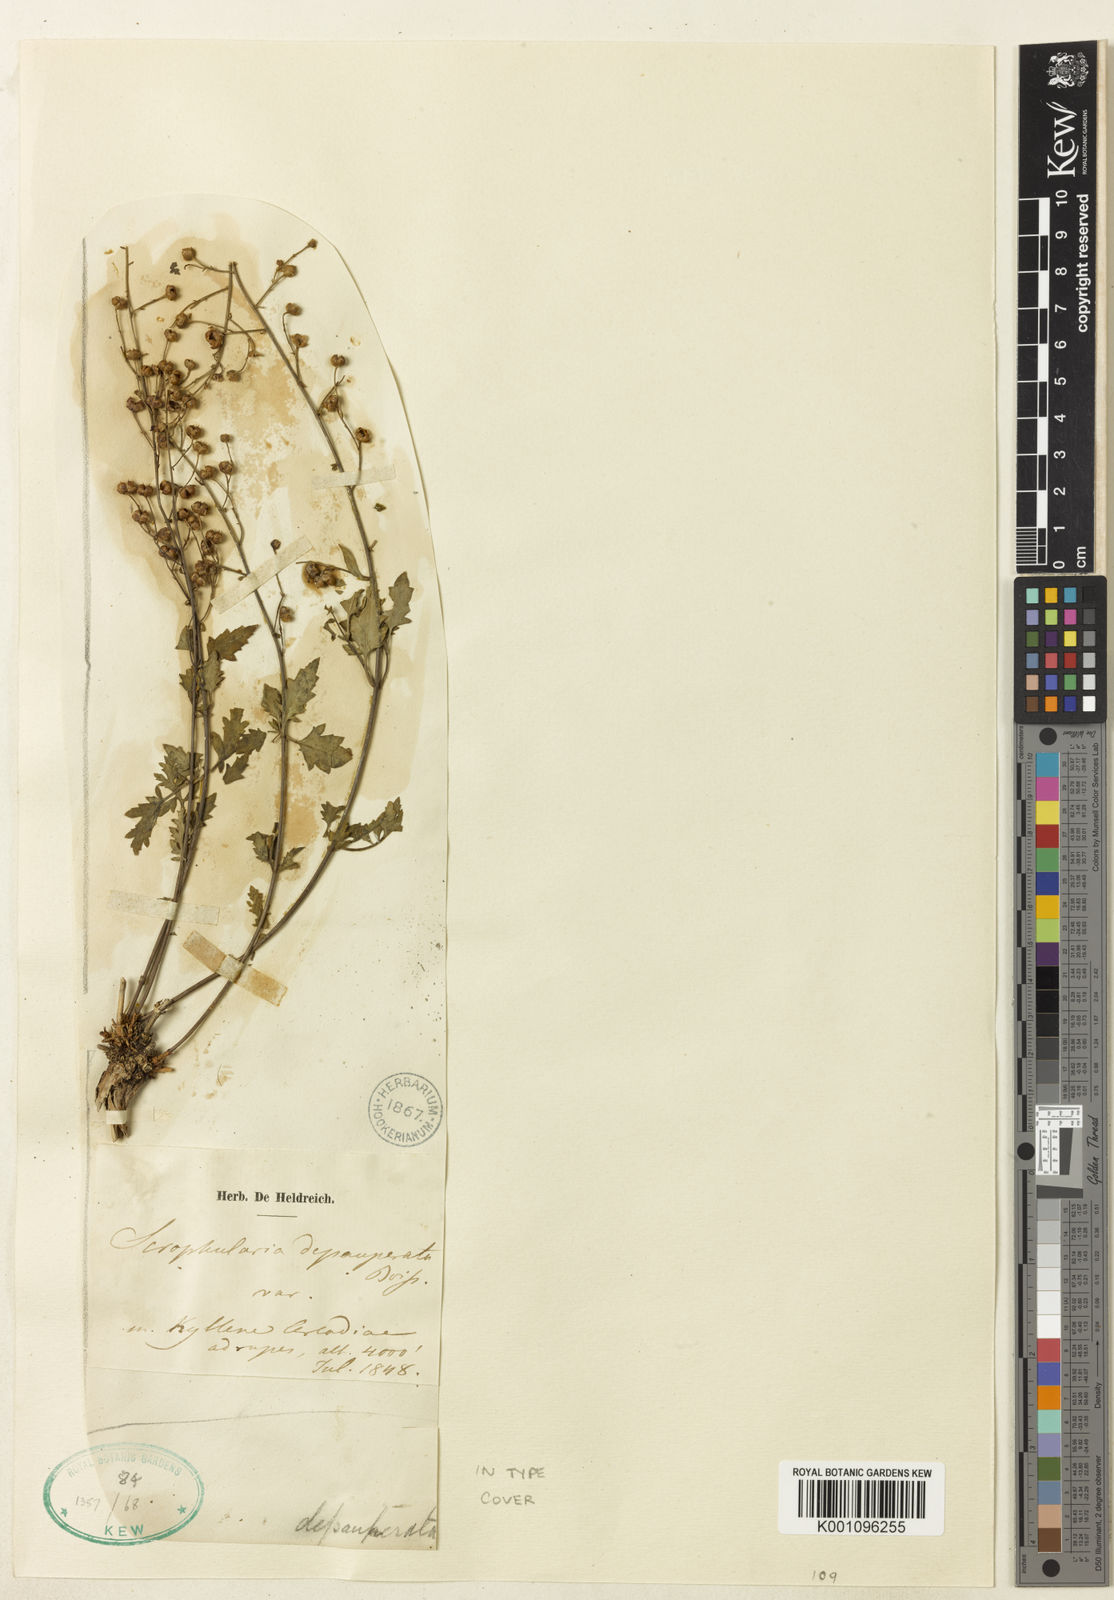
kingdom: Plantae
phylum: Tracheophyta
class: Magnoliopsida
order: Lamiales
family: Scrophulariaceae
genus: Scrophularia
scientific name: Scrophularia depauperata
